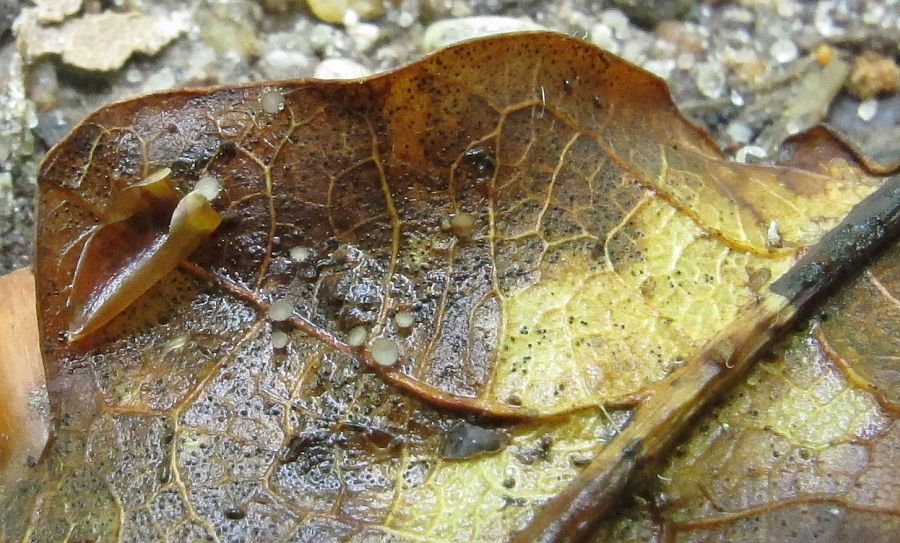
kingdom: Fungi
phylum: Ascomycota
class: Leotiomycetes
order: Helotiales
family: Lachnaceae
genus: Brunnipila
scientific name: Brunnipila brunneola
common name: læderbrun frynseskive
